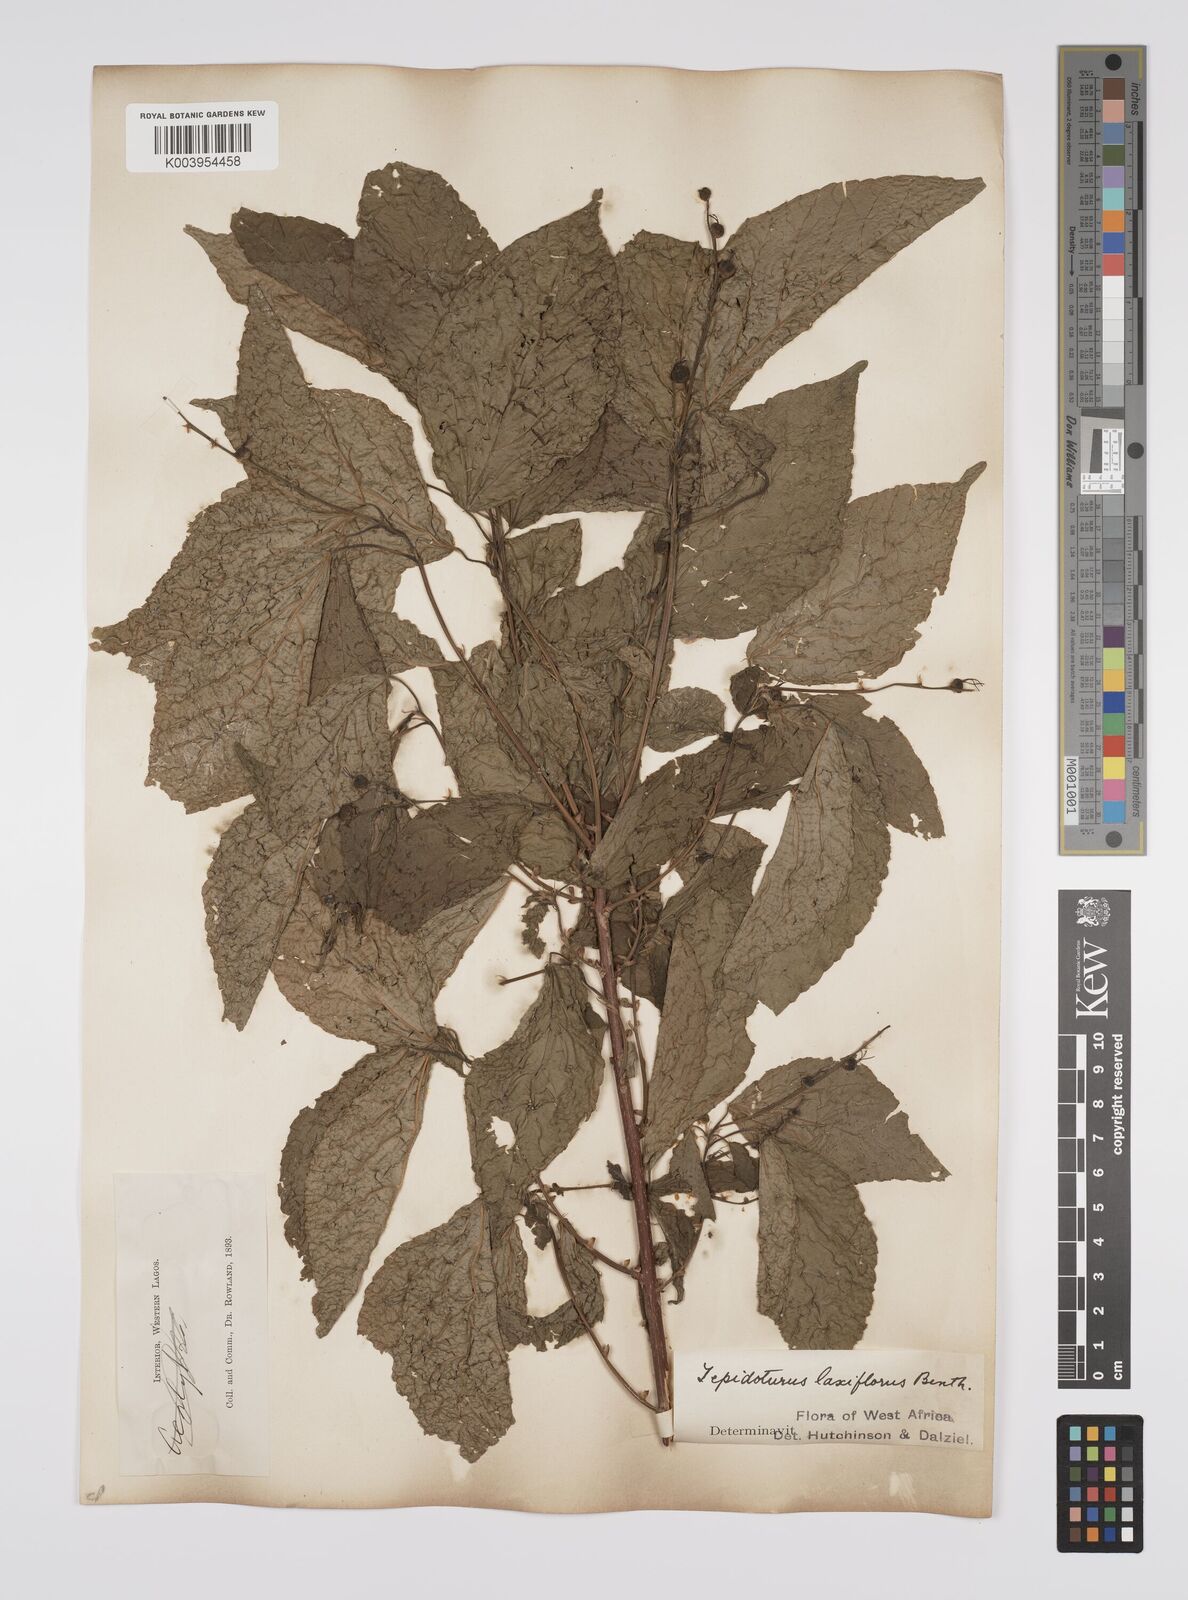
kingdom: Plantae
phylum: Tracheophyta
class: Magnoliopsida
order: Malpighiales
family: Euphorbiaceae
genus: Alchornea
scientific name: Alchornea laxiflora
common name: Lowveld bead-string
